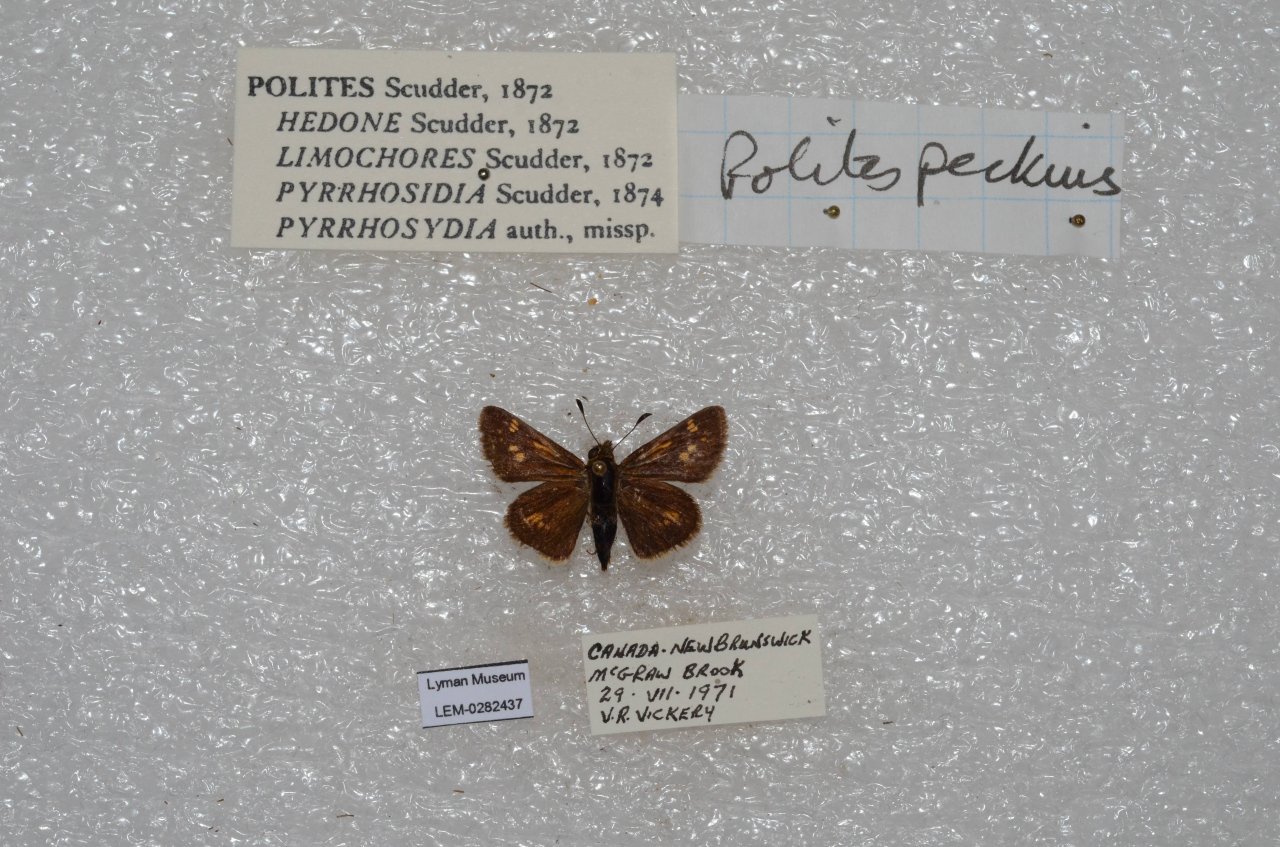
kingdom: Animalia
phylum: Arthropoda
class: Insecta
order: Lepidoptera
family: Hesperiidae
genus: Polites
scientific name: Polites coras
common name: Peck's Skipper
